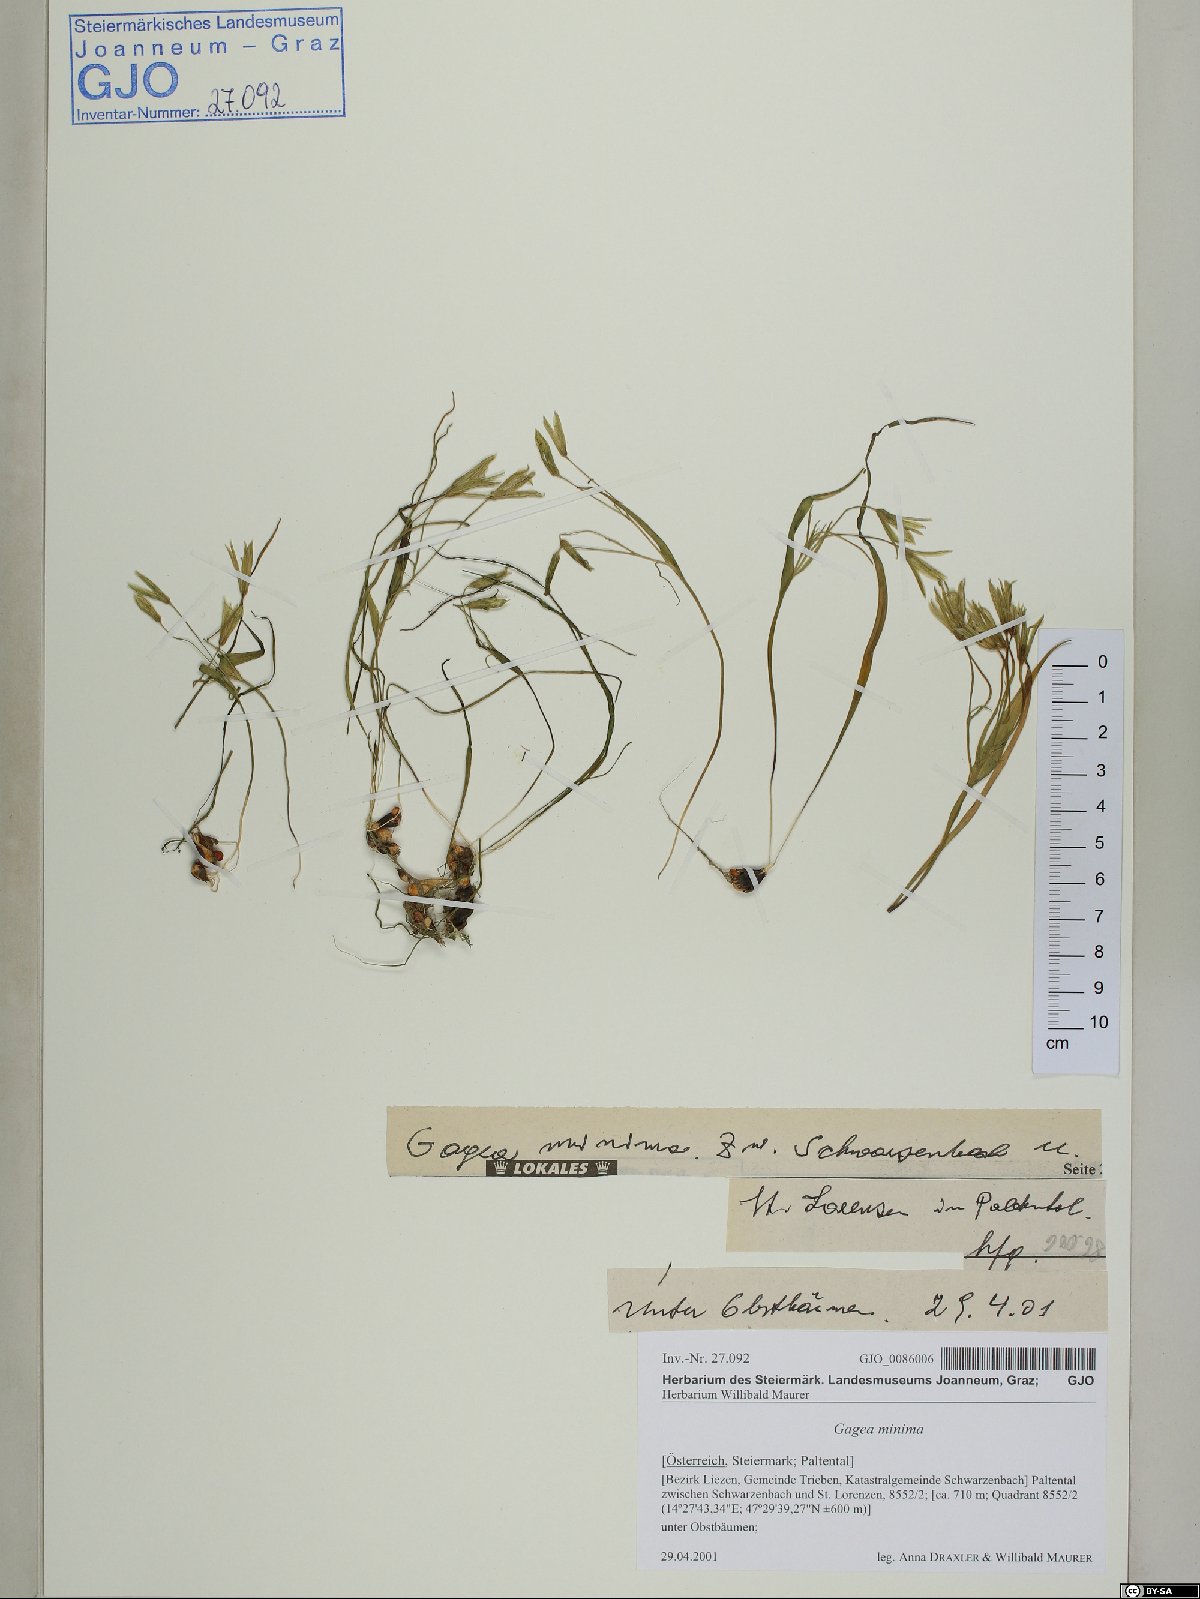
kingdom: Plantae
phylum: Tracheophyta
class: Liliopsida
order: Liliales
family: Liliaceae
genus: Gagea
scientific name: Gagea minima
